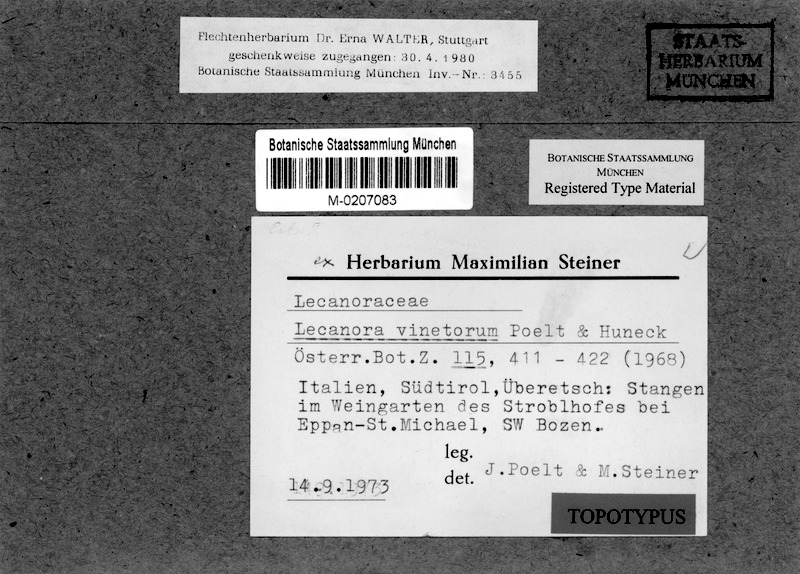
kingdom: Fungi
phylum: Ascomycota
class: Lecanoromycetes
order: Lecanorales
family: Lecanoraceae
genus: Lecanora
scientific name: Lecanora vinetorum
